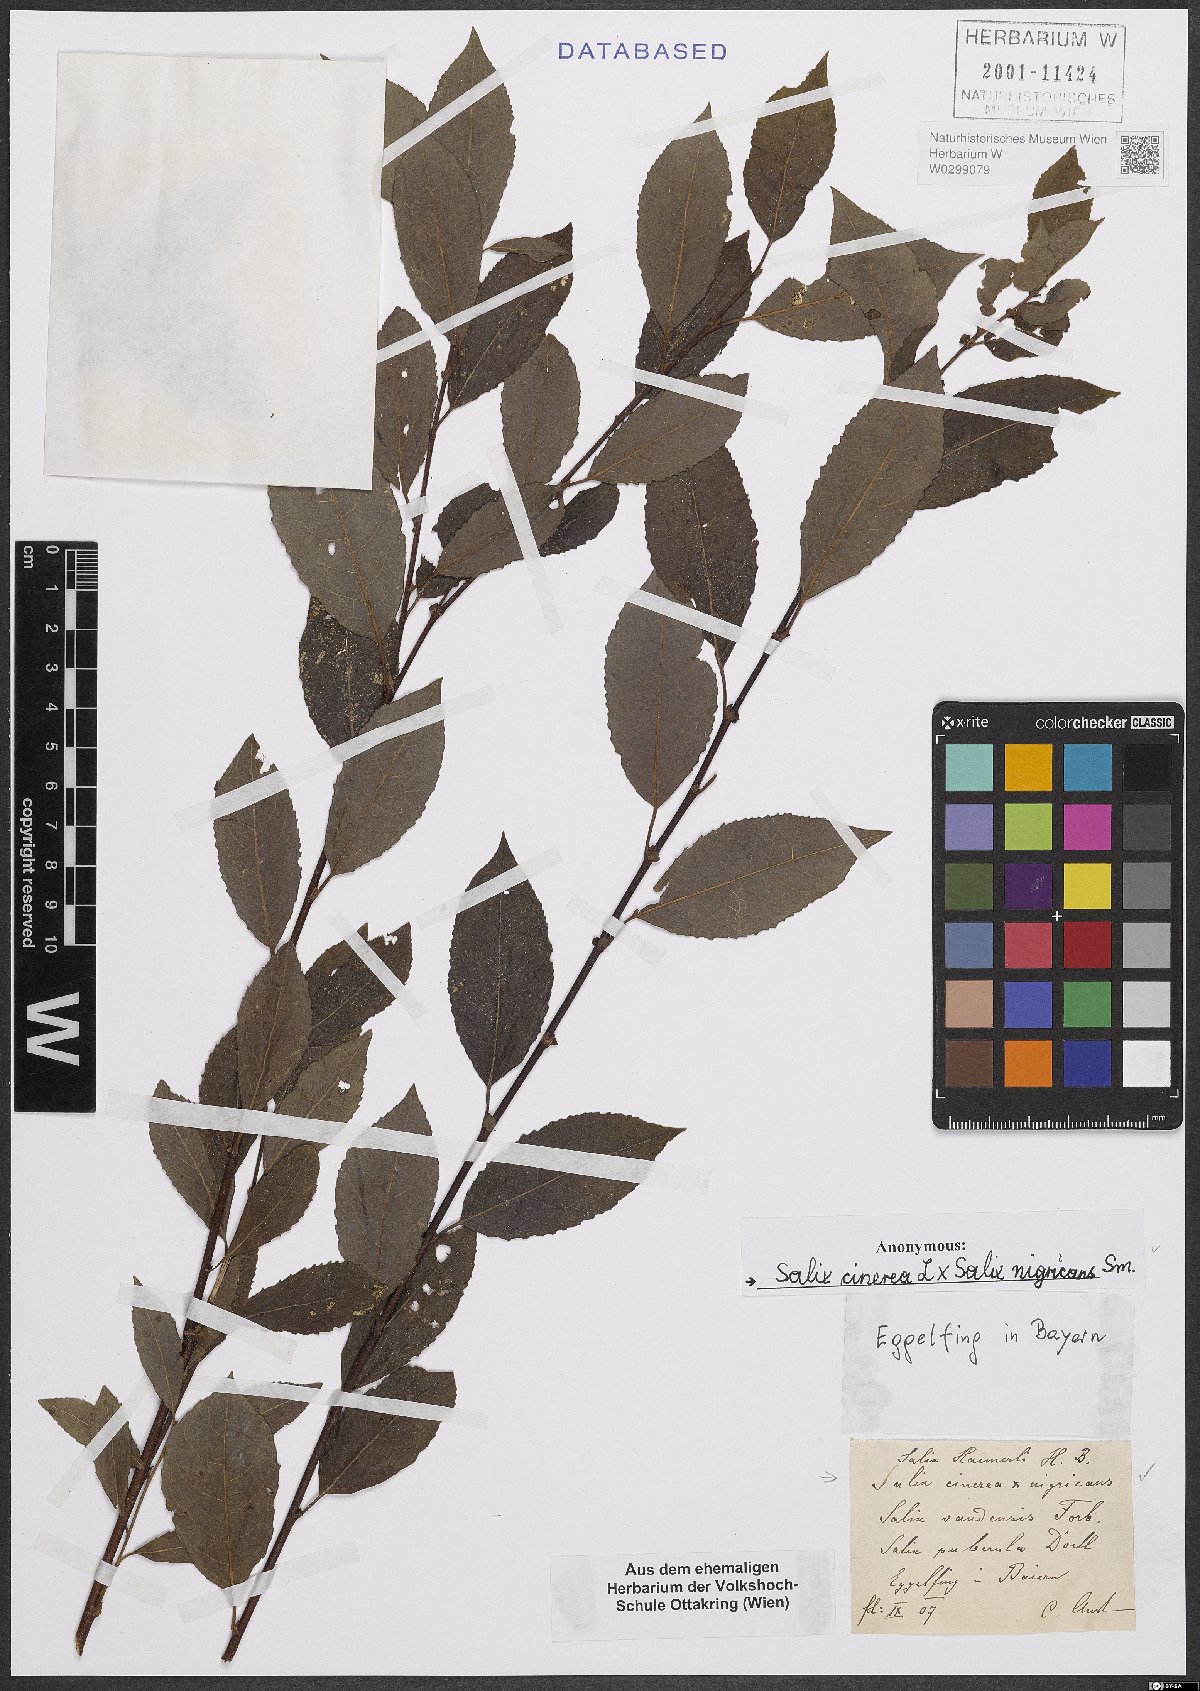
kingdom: Plantae
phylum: Tracheophyta
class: Magnoliopsida
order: Malpighiales
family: Salicaceae
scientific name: Salicaceae
